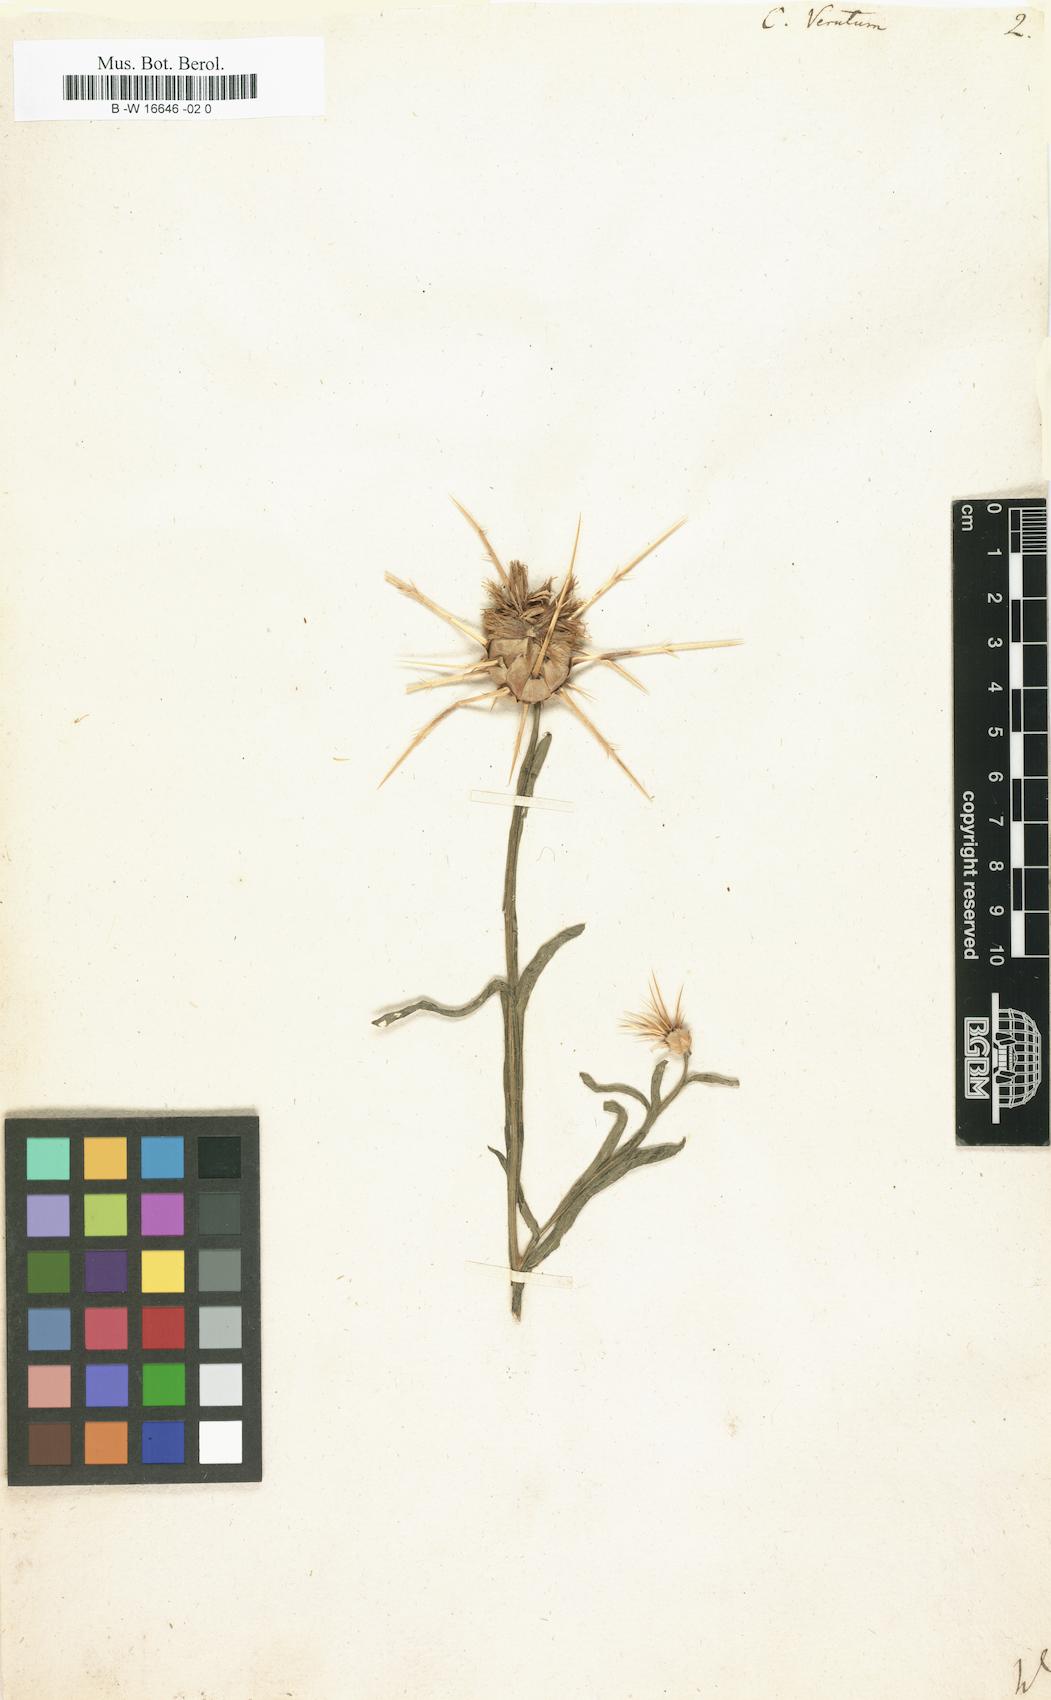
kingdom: Plantae
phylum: Tracheophyta
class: Magnoliopsida
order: Asterales
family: Asteraceae
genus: Centaurea
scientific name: Centaurea verutum
